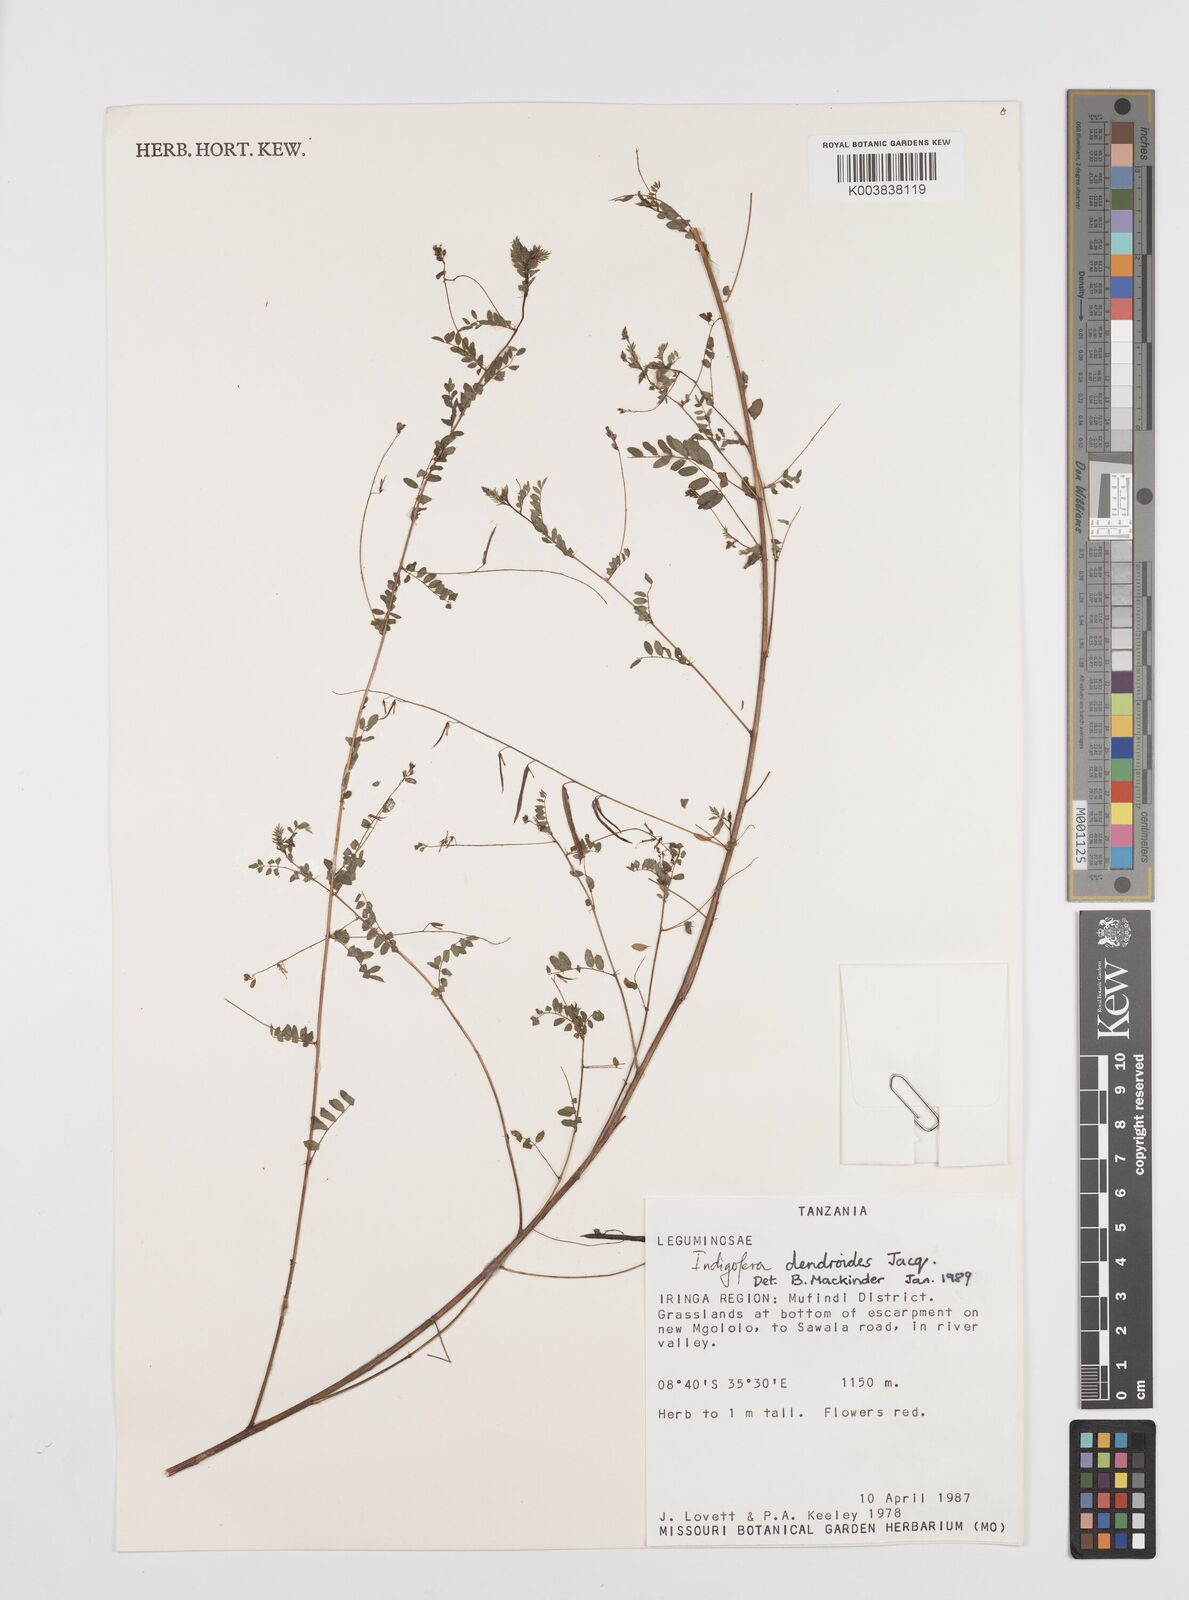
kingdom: Plantae
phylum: Tracheophyta
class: Magnoliopsida
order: Fabales
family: Fabaceae
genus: Indigofera
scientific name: Indigofera dendroides
